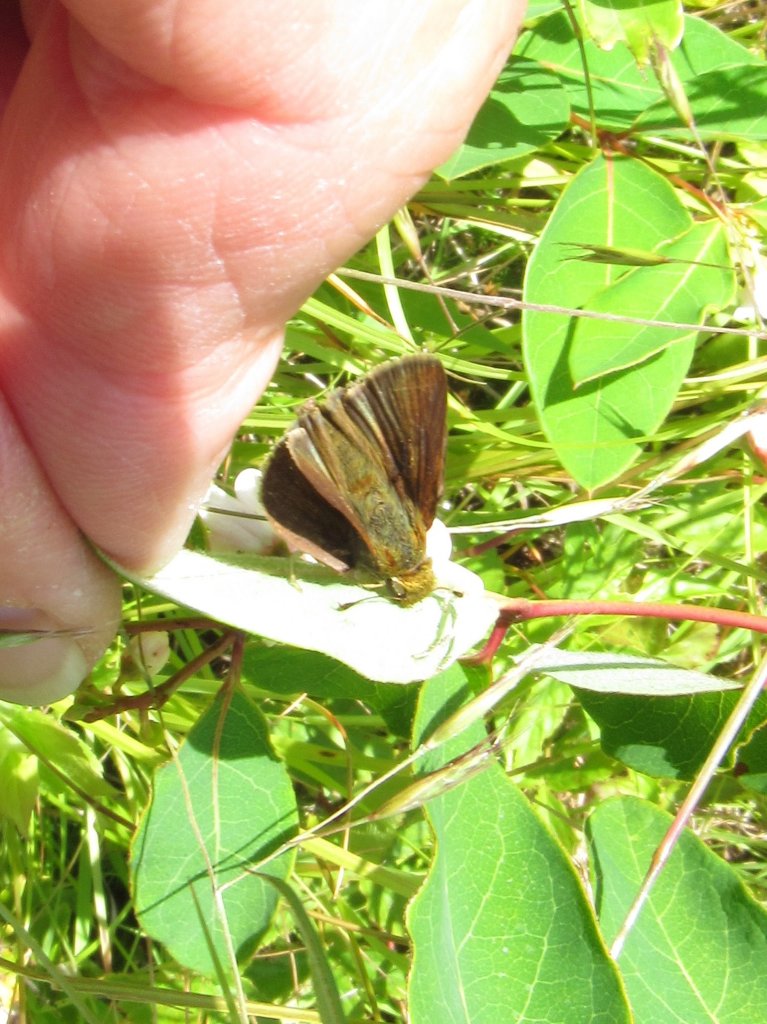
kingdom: Animalia
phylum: Arthropoda
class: Insecta
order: Lepidoptera
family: Hesperiidae
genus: Euphyes
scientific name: Euphyes vestris
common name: Dun Skipper
